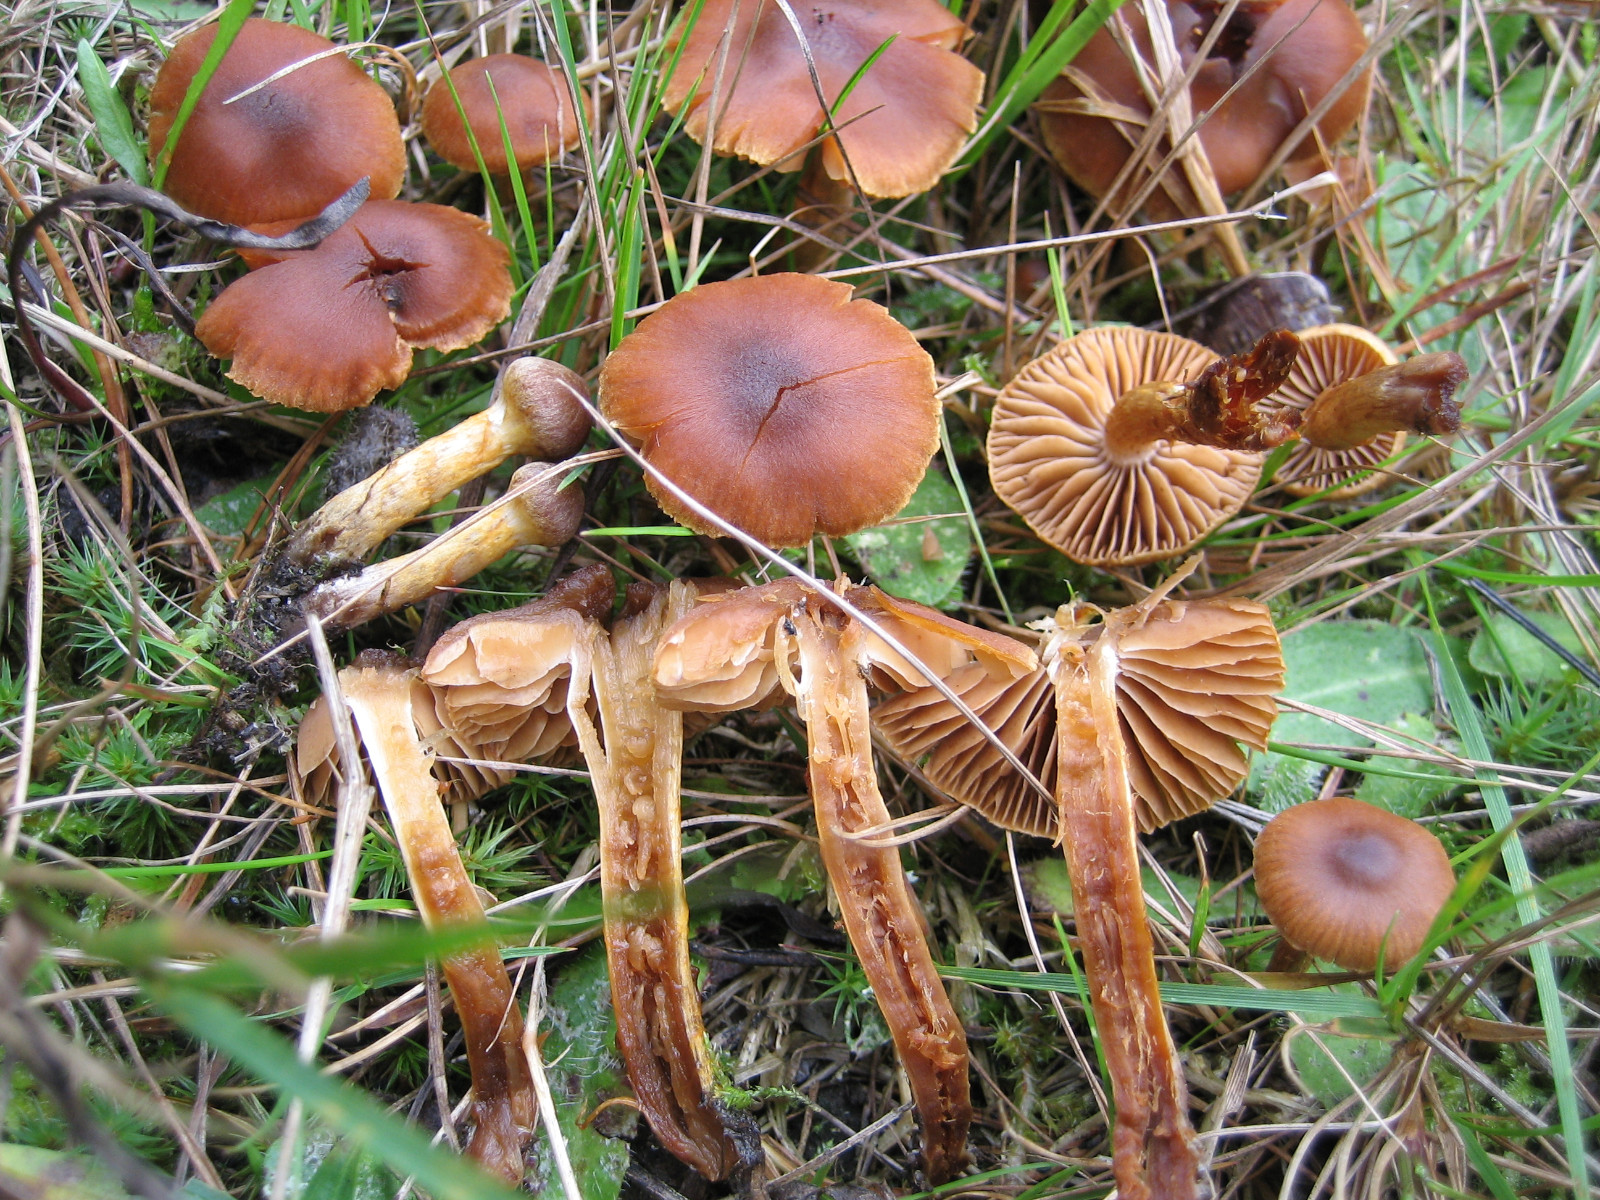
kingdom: Fungi
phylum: Basidiomycota
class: Agaricomycetes
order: Agaricales
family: Cortinariaceae
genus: Cortinarius
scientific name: Cortinarius saniosus
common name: gultrævlet slørhat
